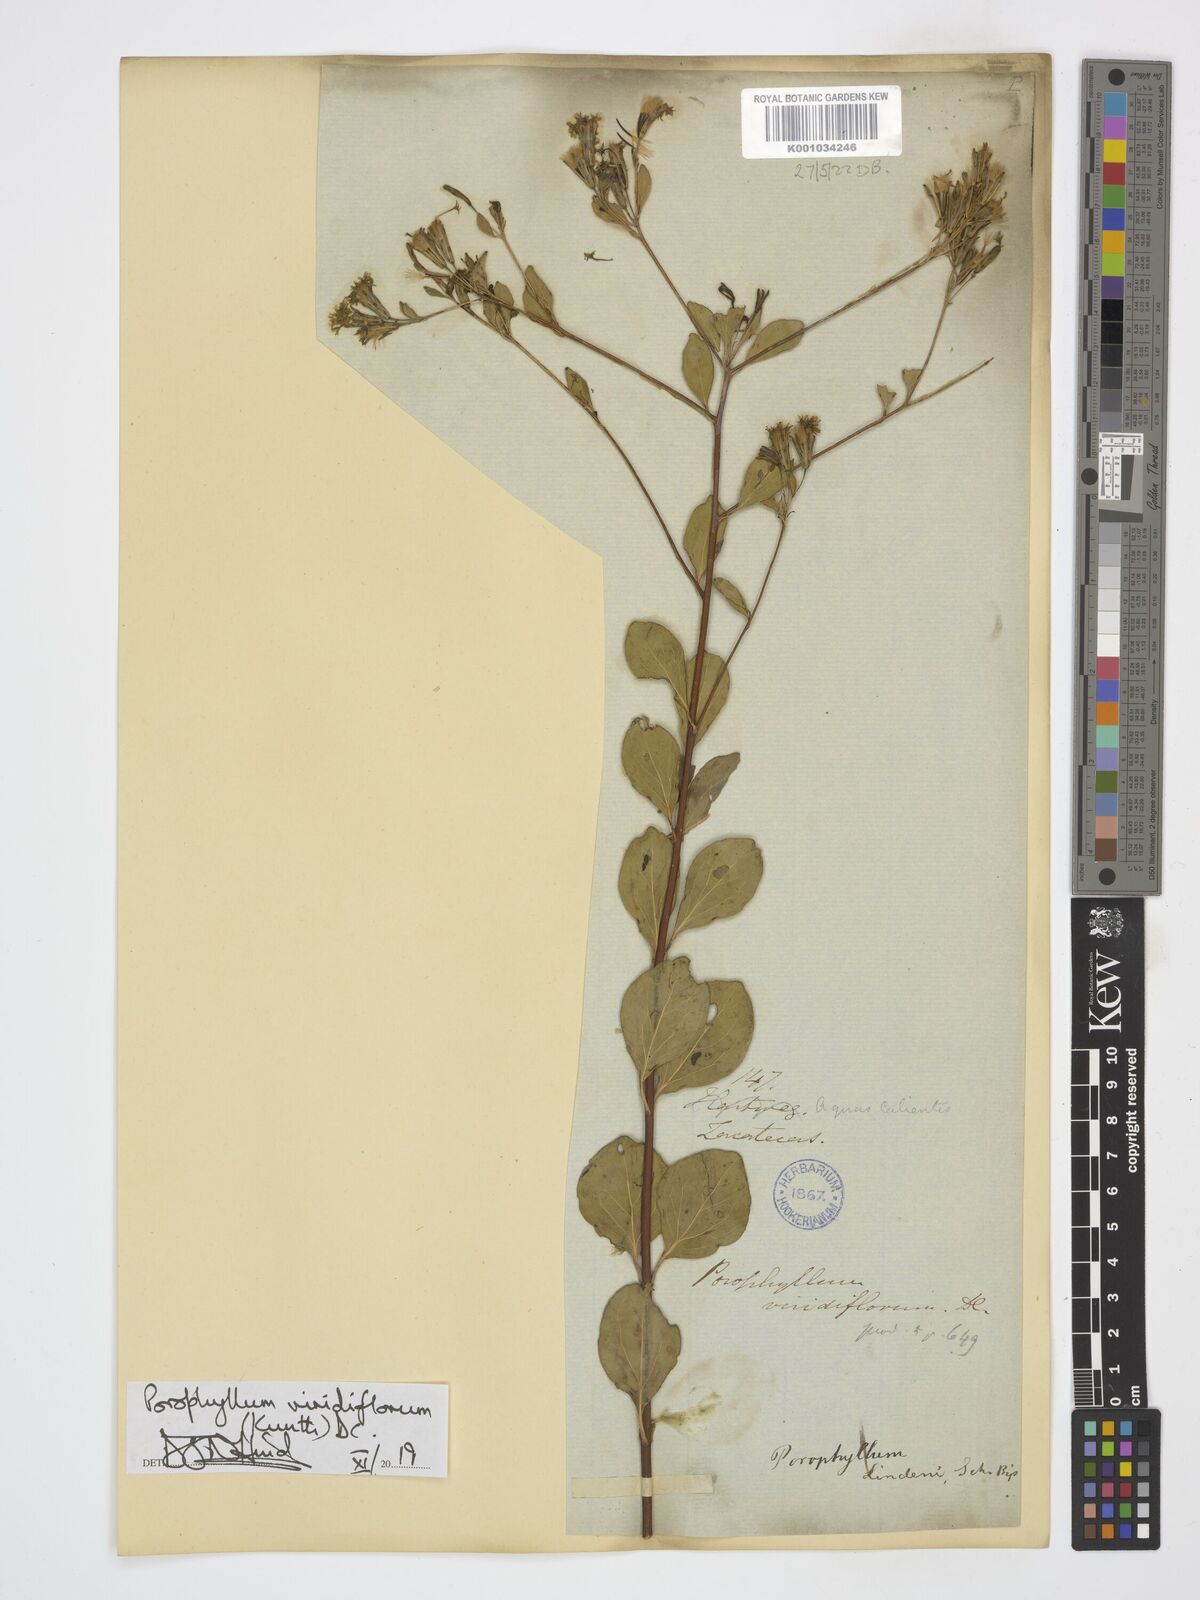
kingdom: Plantae
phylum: Tracheophyta
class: Magnoliopsida
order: Asterales
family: Asteraceae
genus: Porophyllum
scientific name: Porophyllum viridiflorum
